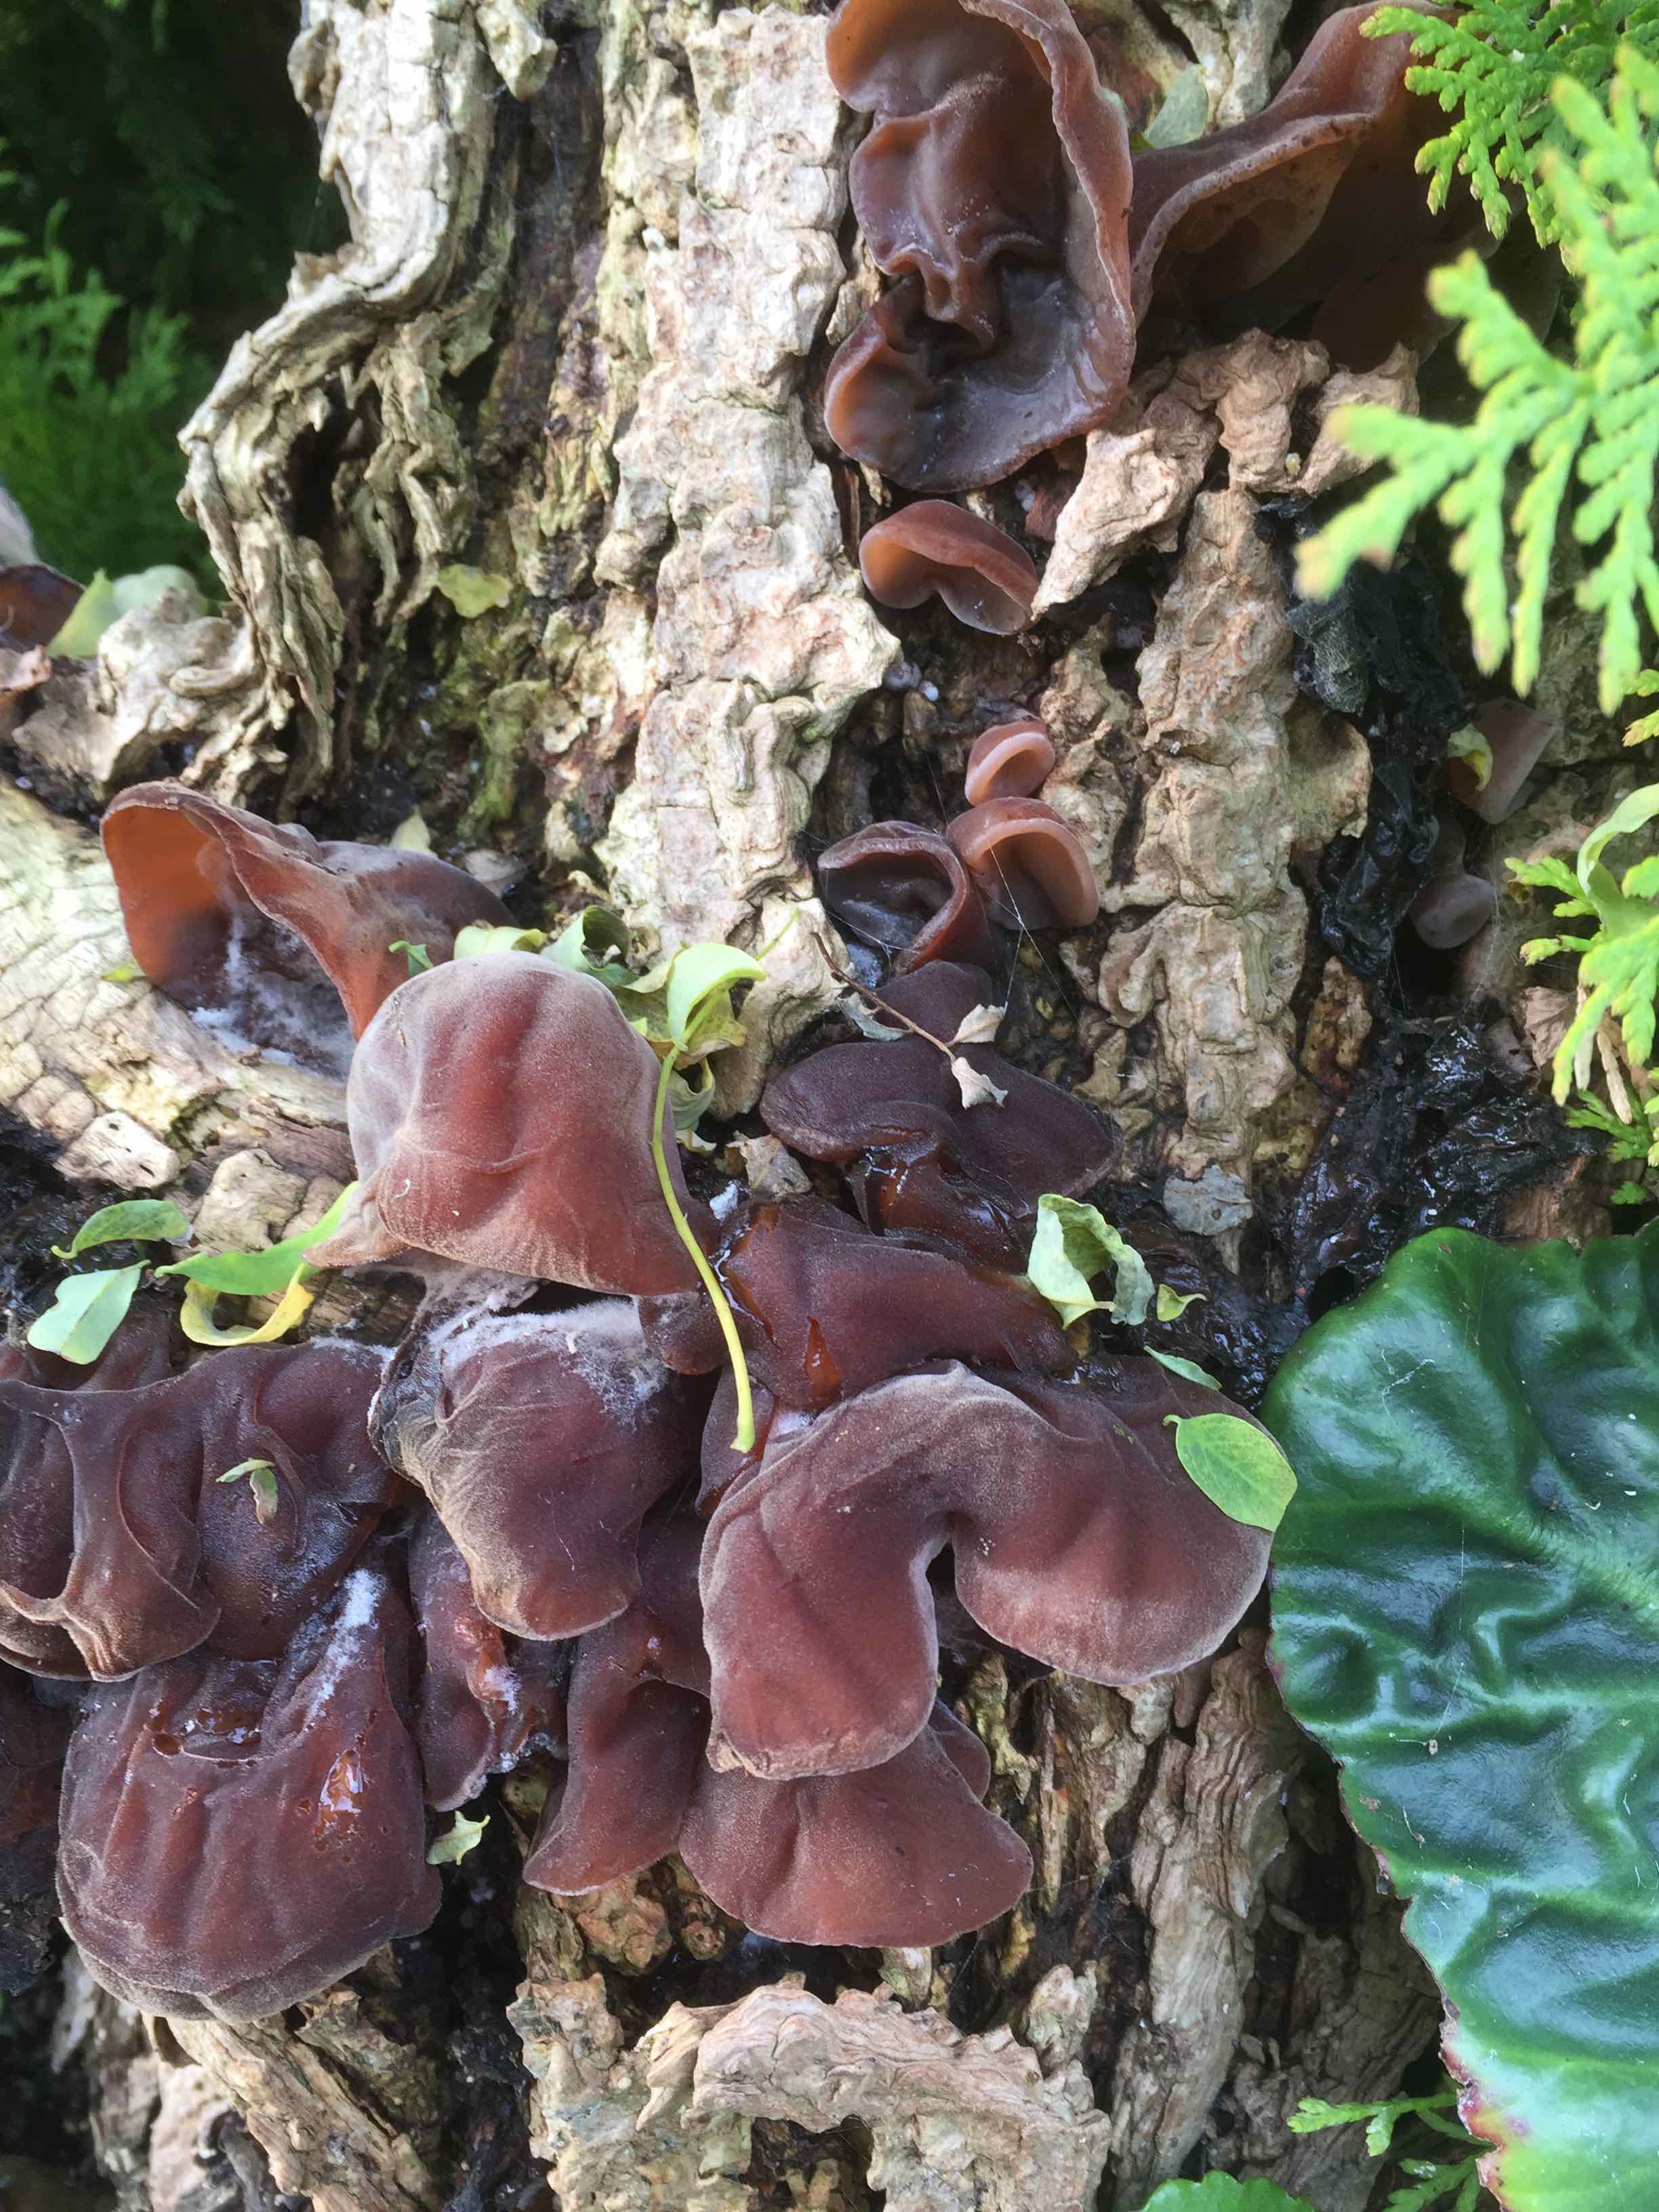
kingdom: Fungi
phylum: Basidiomycota
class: Agaricomycetes
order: Auriculariales
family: Auriculariaceae
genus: Auricularia
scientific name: Auricularia auricula-judae
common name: almindelig judasøre
